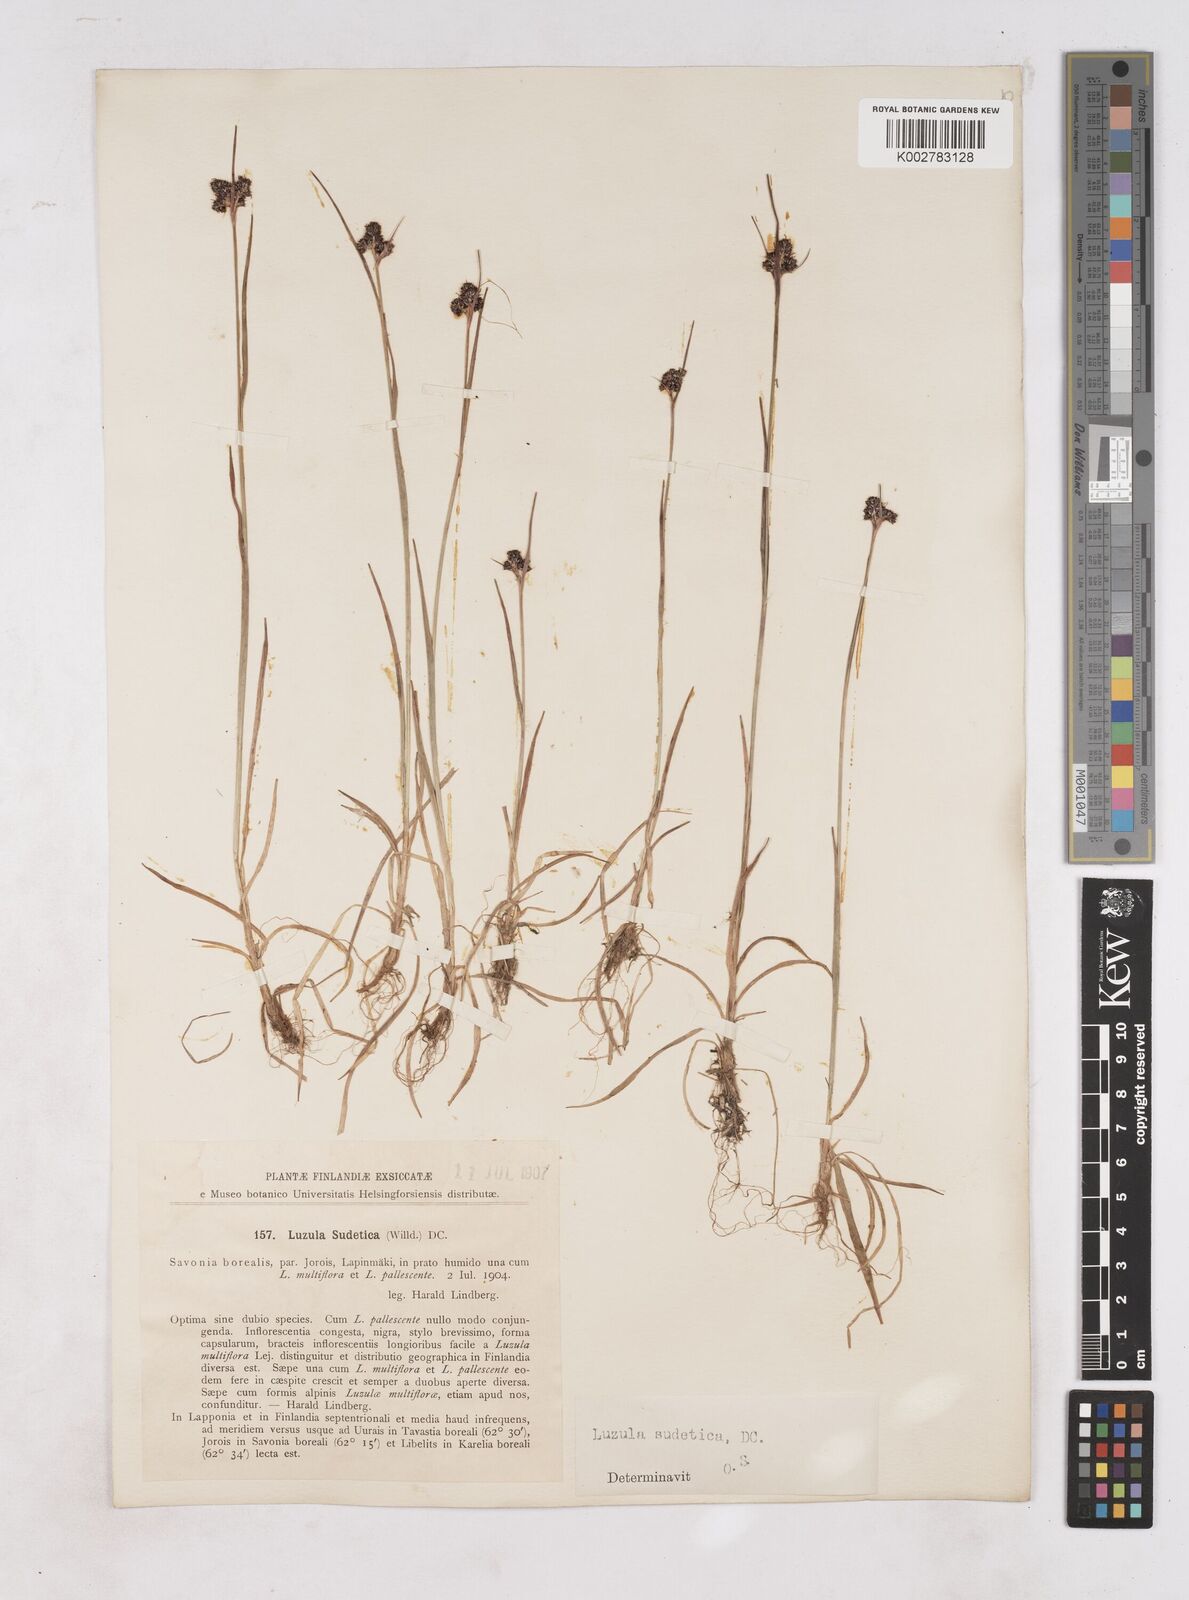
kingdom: Plantae
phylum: Tracheophyta
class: Liliopsida
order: Poales
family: Juncaceae
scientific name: Juncaceae
